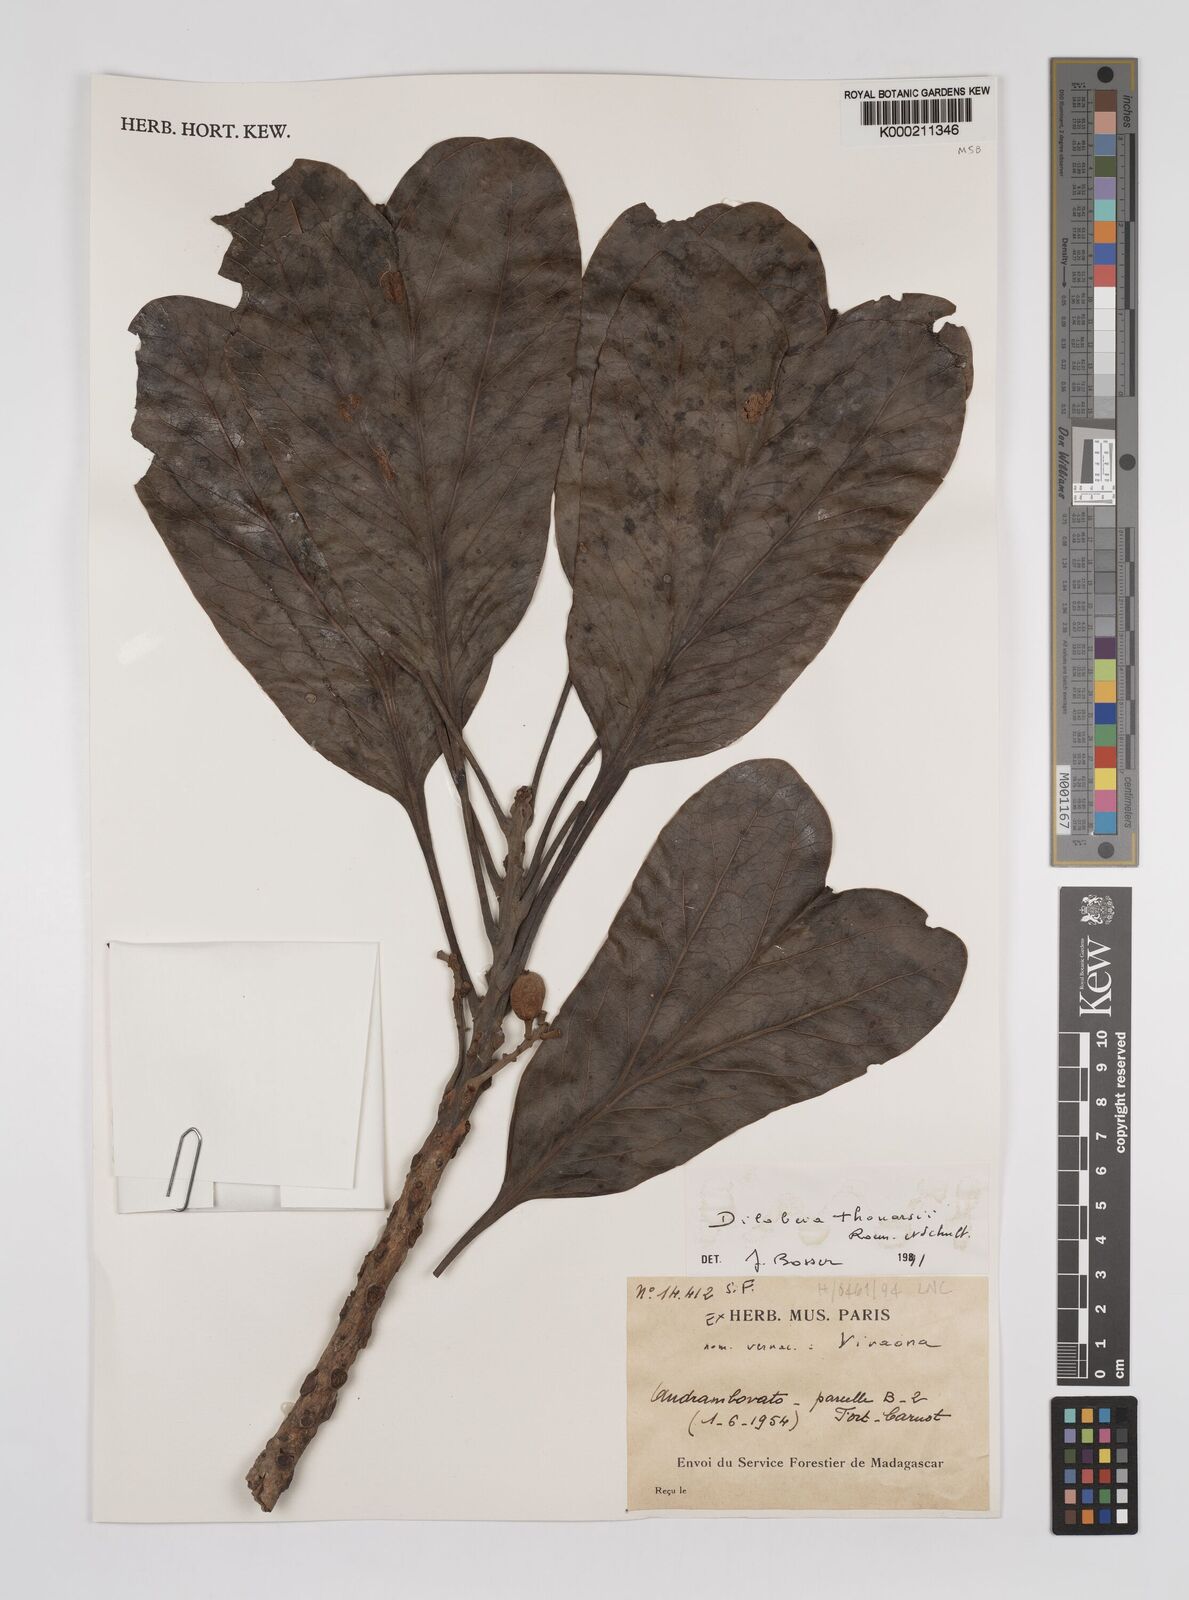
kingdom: Plantae
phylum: Tracheophyta
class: Magnoliopsida
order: Proteales
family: Proteaceae
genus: Dilobeia
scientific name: Dilobeia thouarsii
